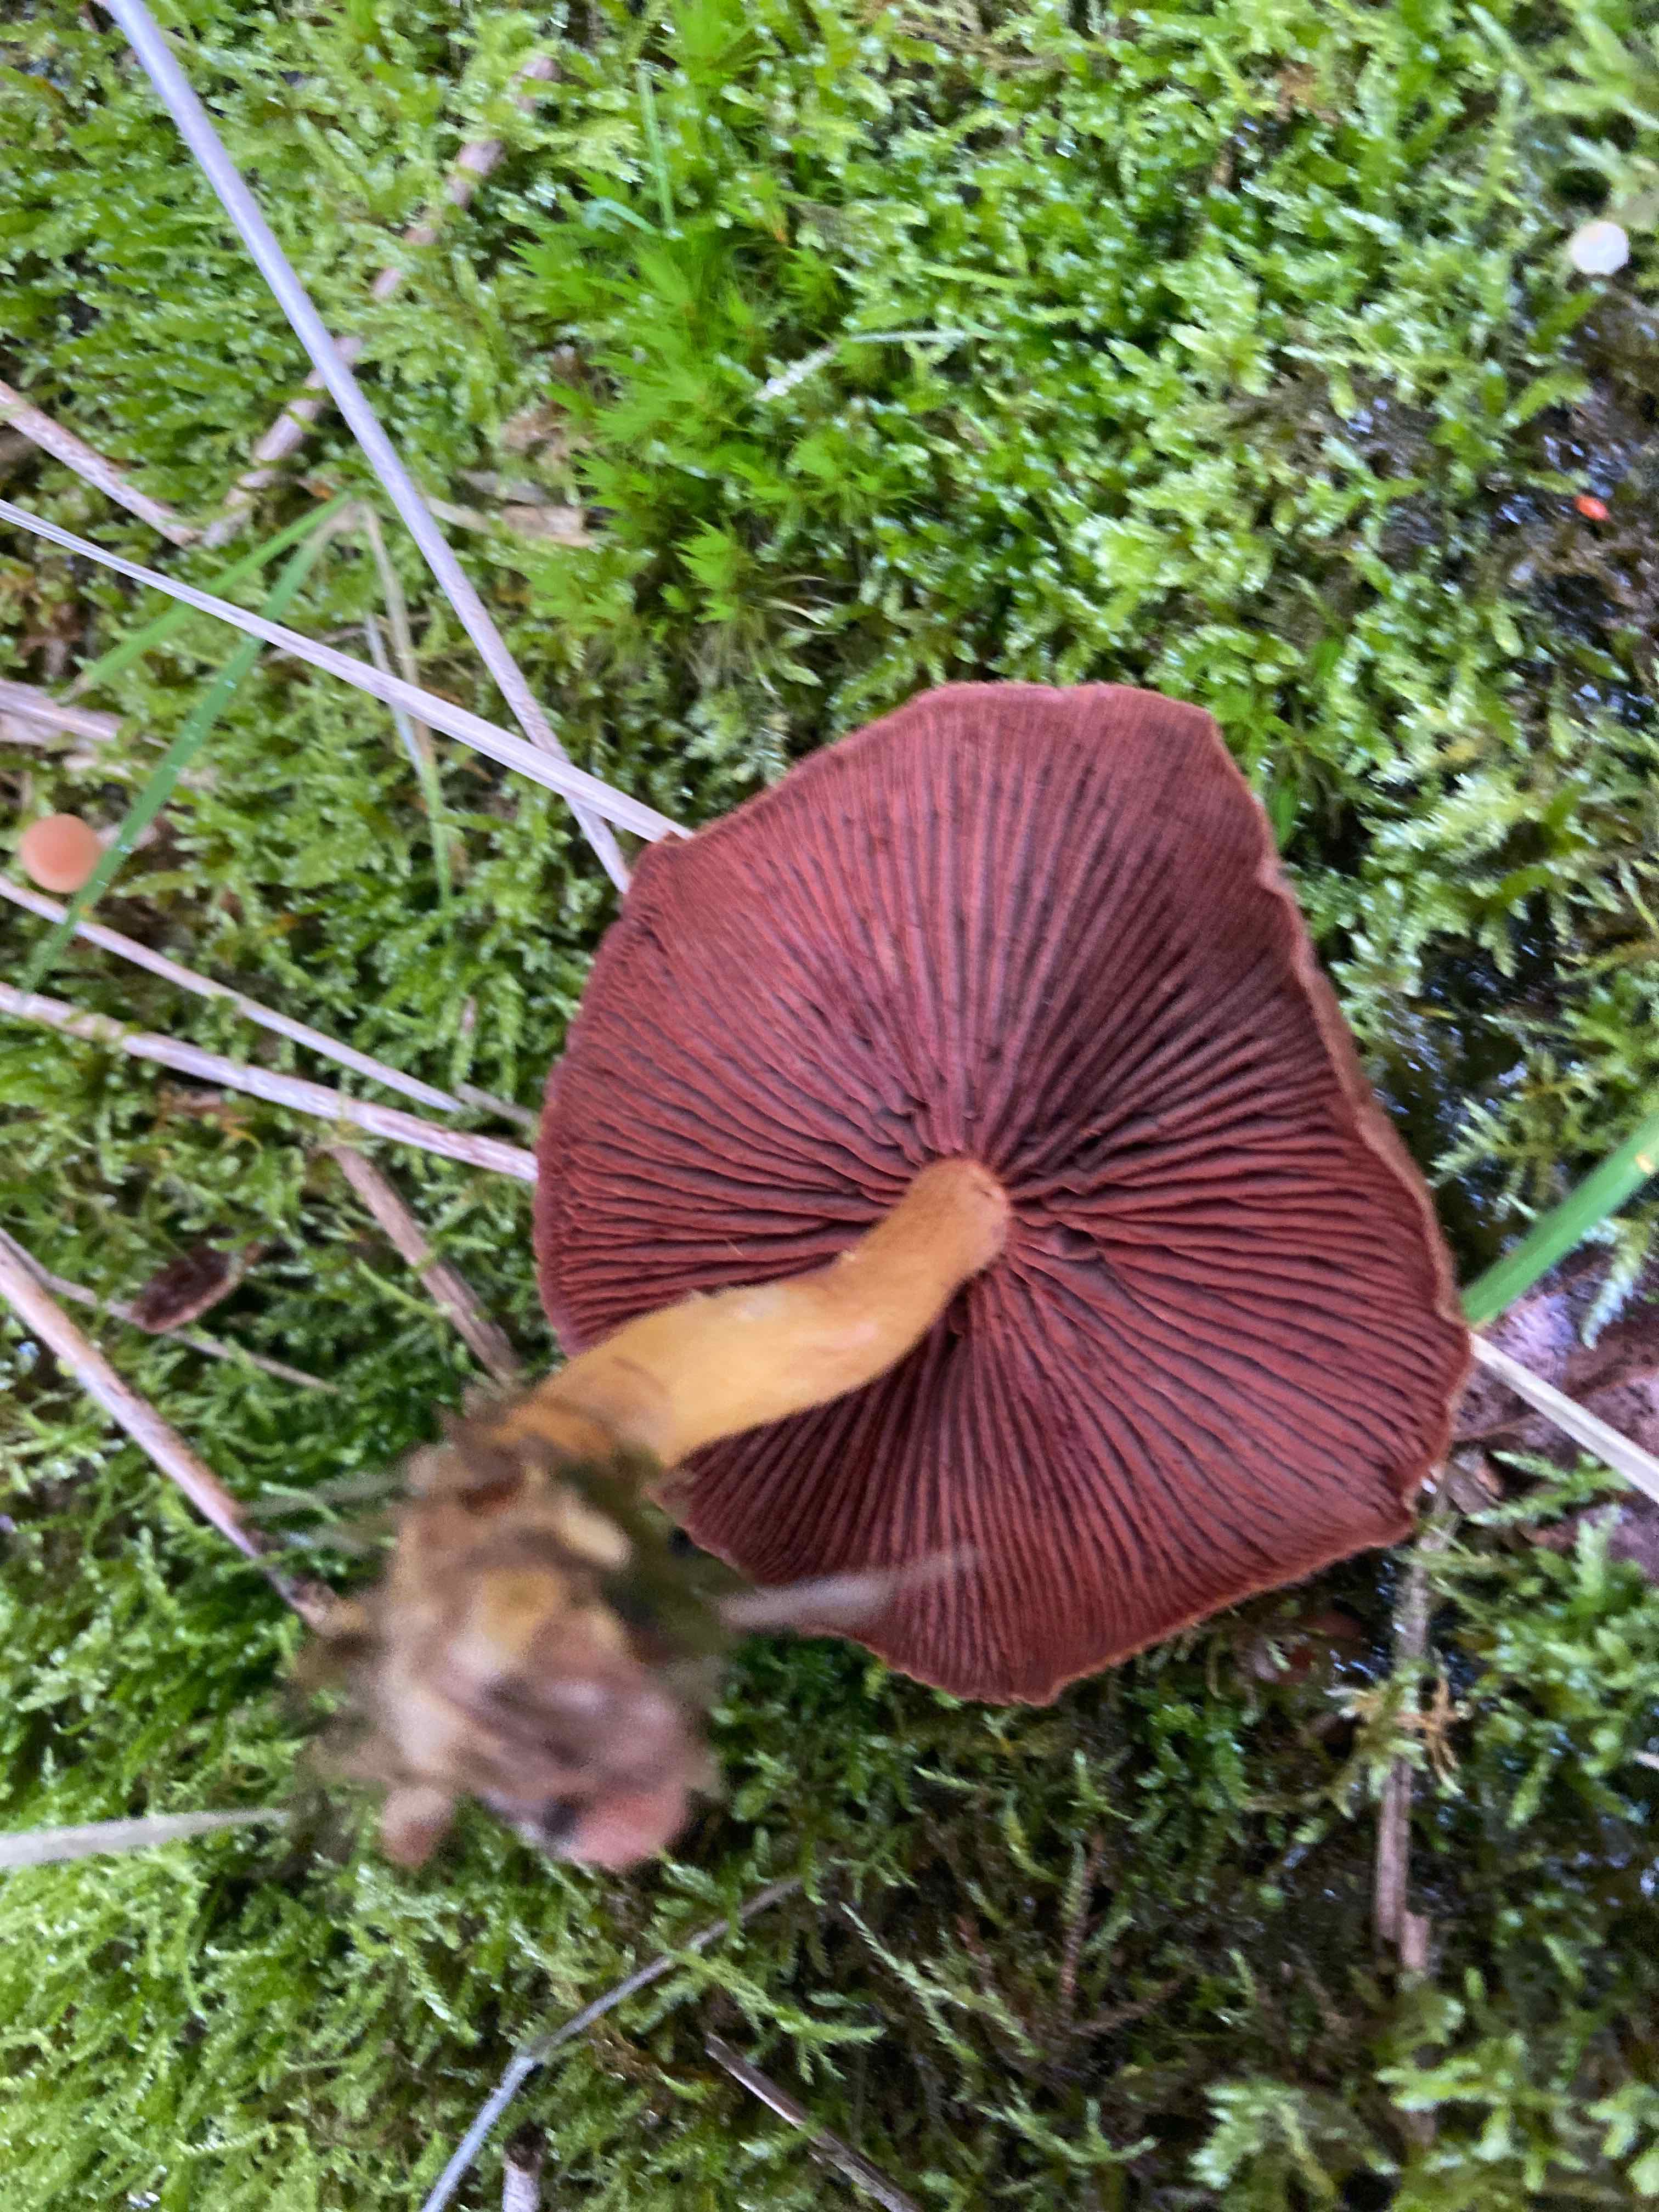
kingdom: Fungi
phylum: Basidiomycota
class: Agaricomycetes
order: Agaricales
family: Cortinariaceae
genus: Cortinarius
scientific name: Cortinarius
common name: cinnoberbladet slørhat
